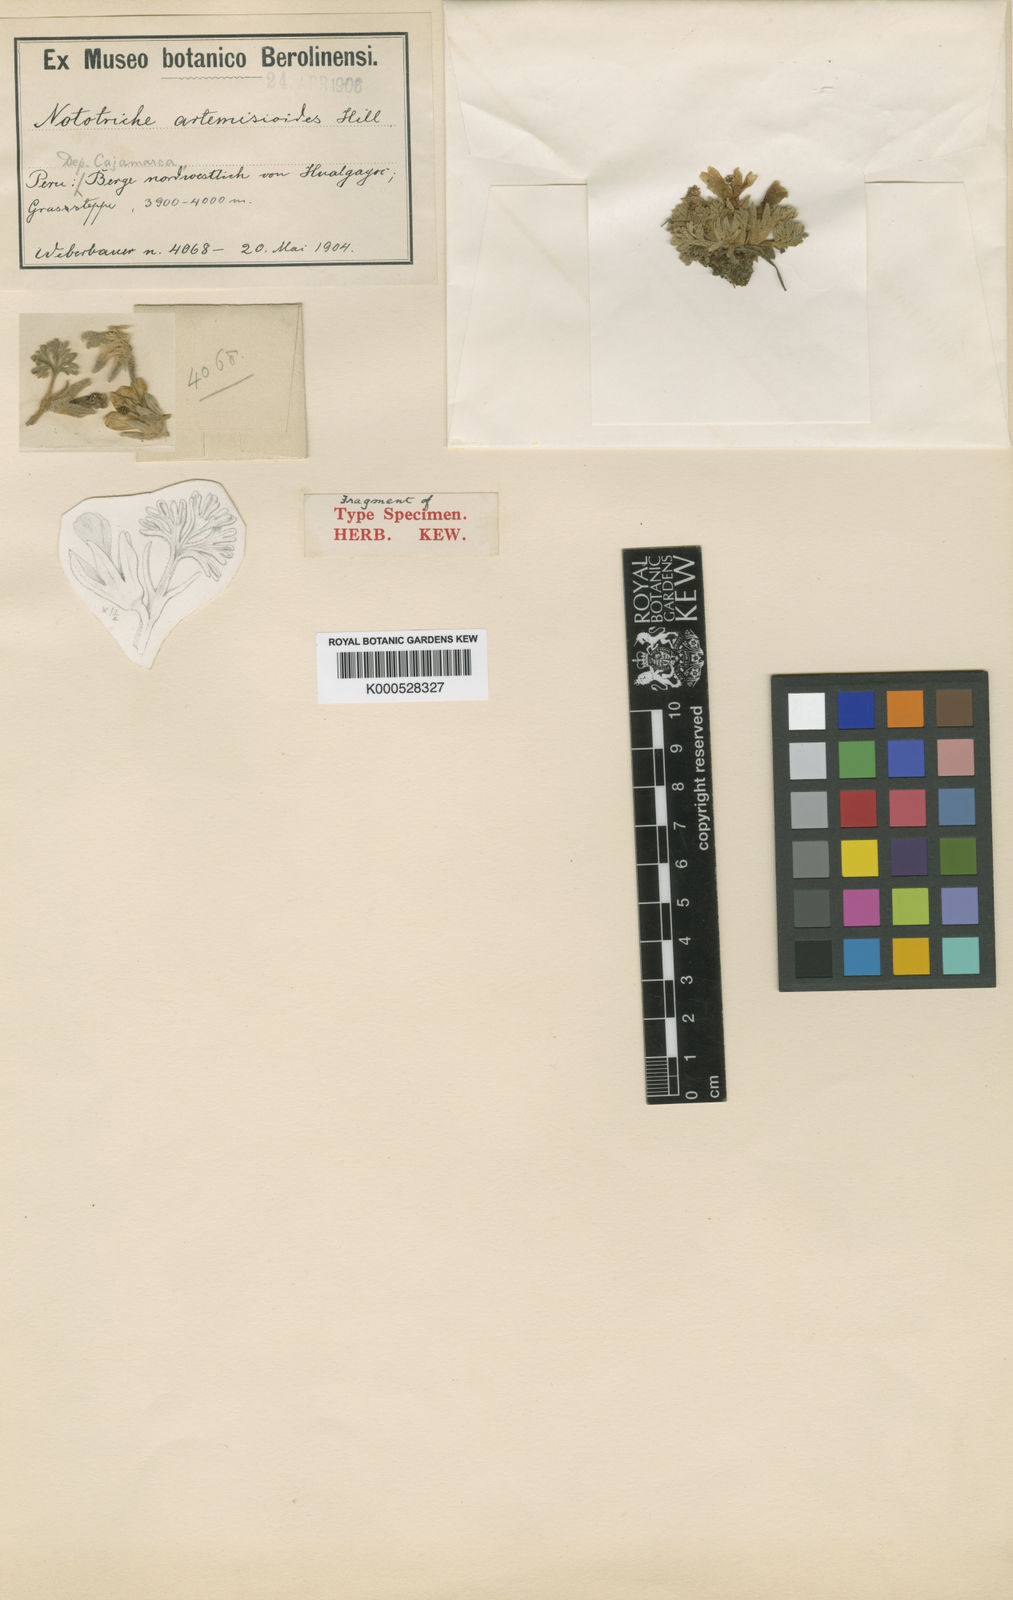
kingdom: Plantae
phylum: Tracheophyta
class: Magnoliopsida
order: Malvales
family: Malvaceae
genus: Nototriche
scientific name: Nototriche artemisioides
